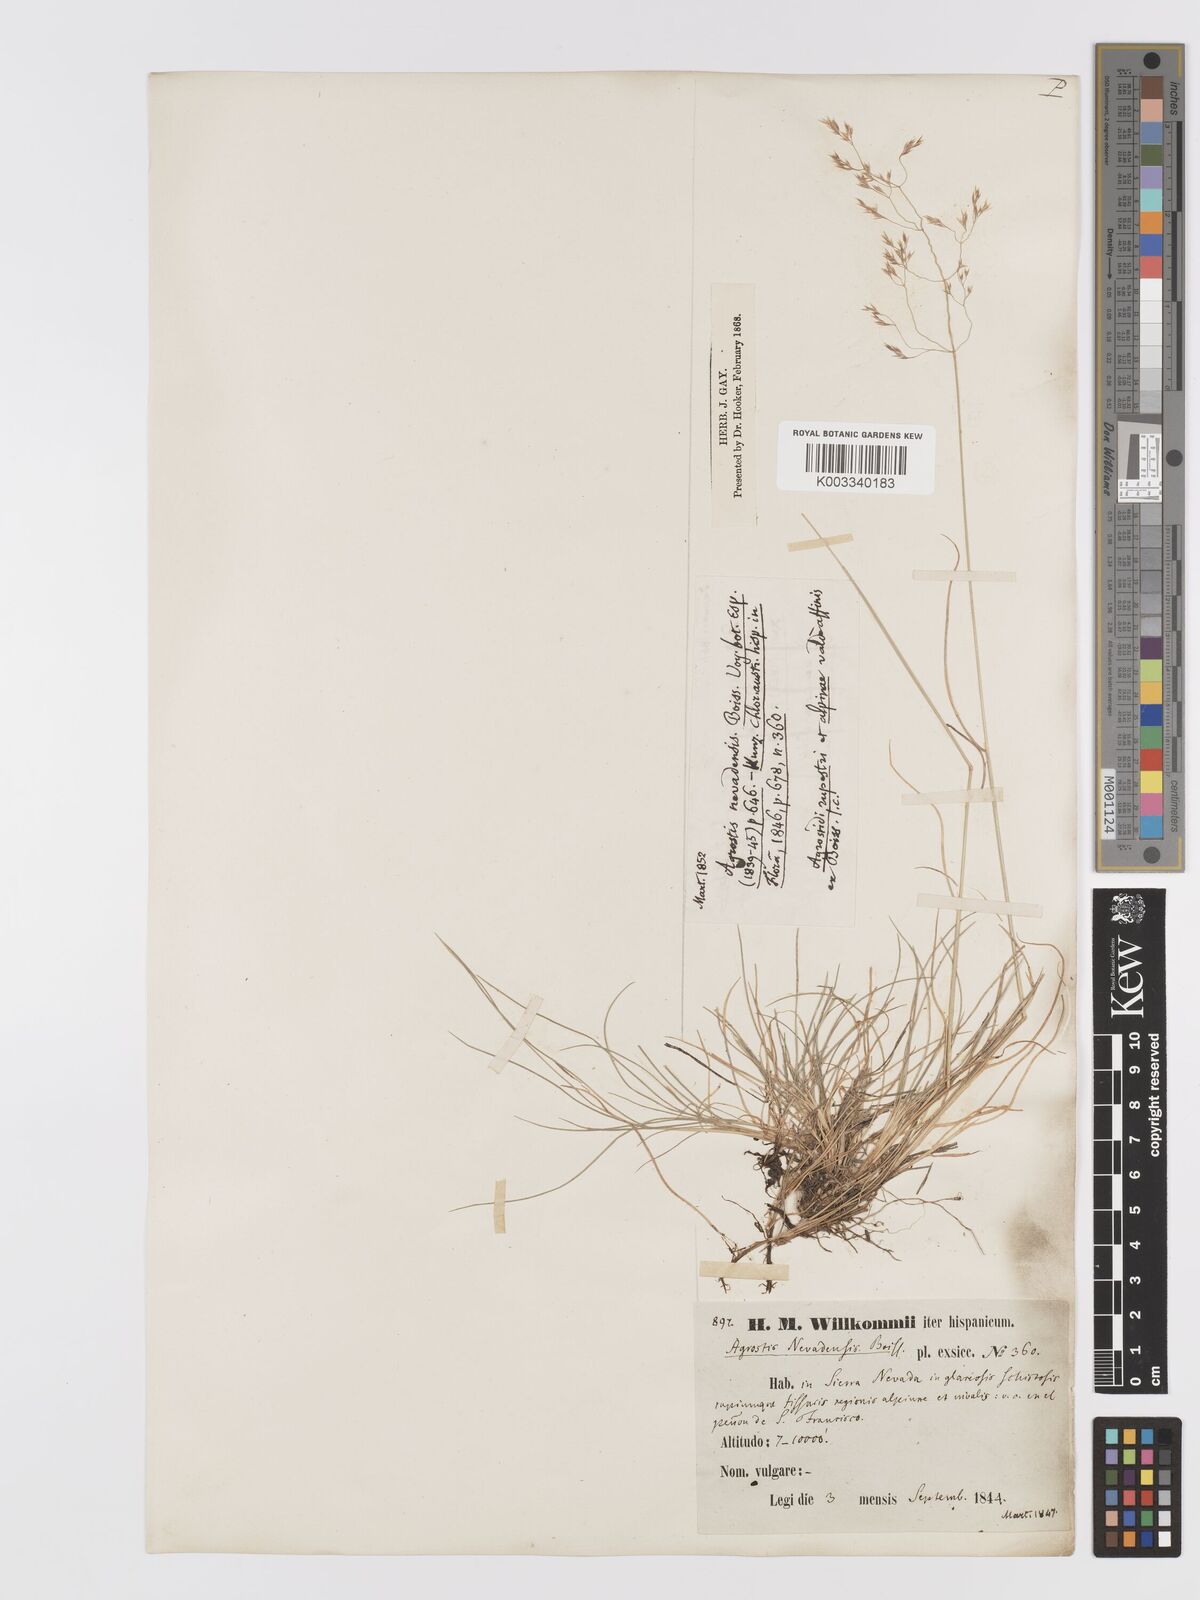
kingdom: Plantae
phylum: Tracheophyta
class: Liliopsida
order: Poales
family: Poaceae
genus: Agrostis
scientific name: Agrostis nevadensis
